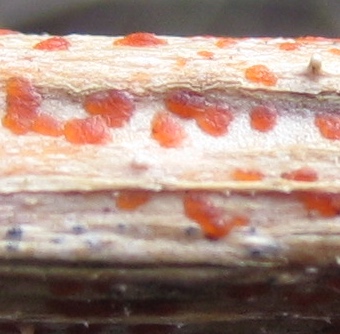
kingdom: Fungi
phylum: Ascomycota
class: Leotiomycetes
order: Helotiales
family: Calloriaceae
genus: Calloria
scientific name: Calloria urticae
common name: nælde-orangeskive
